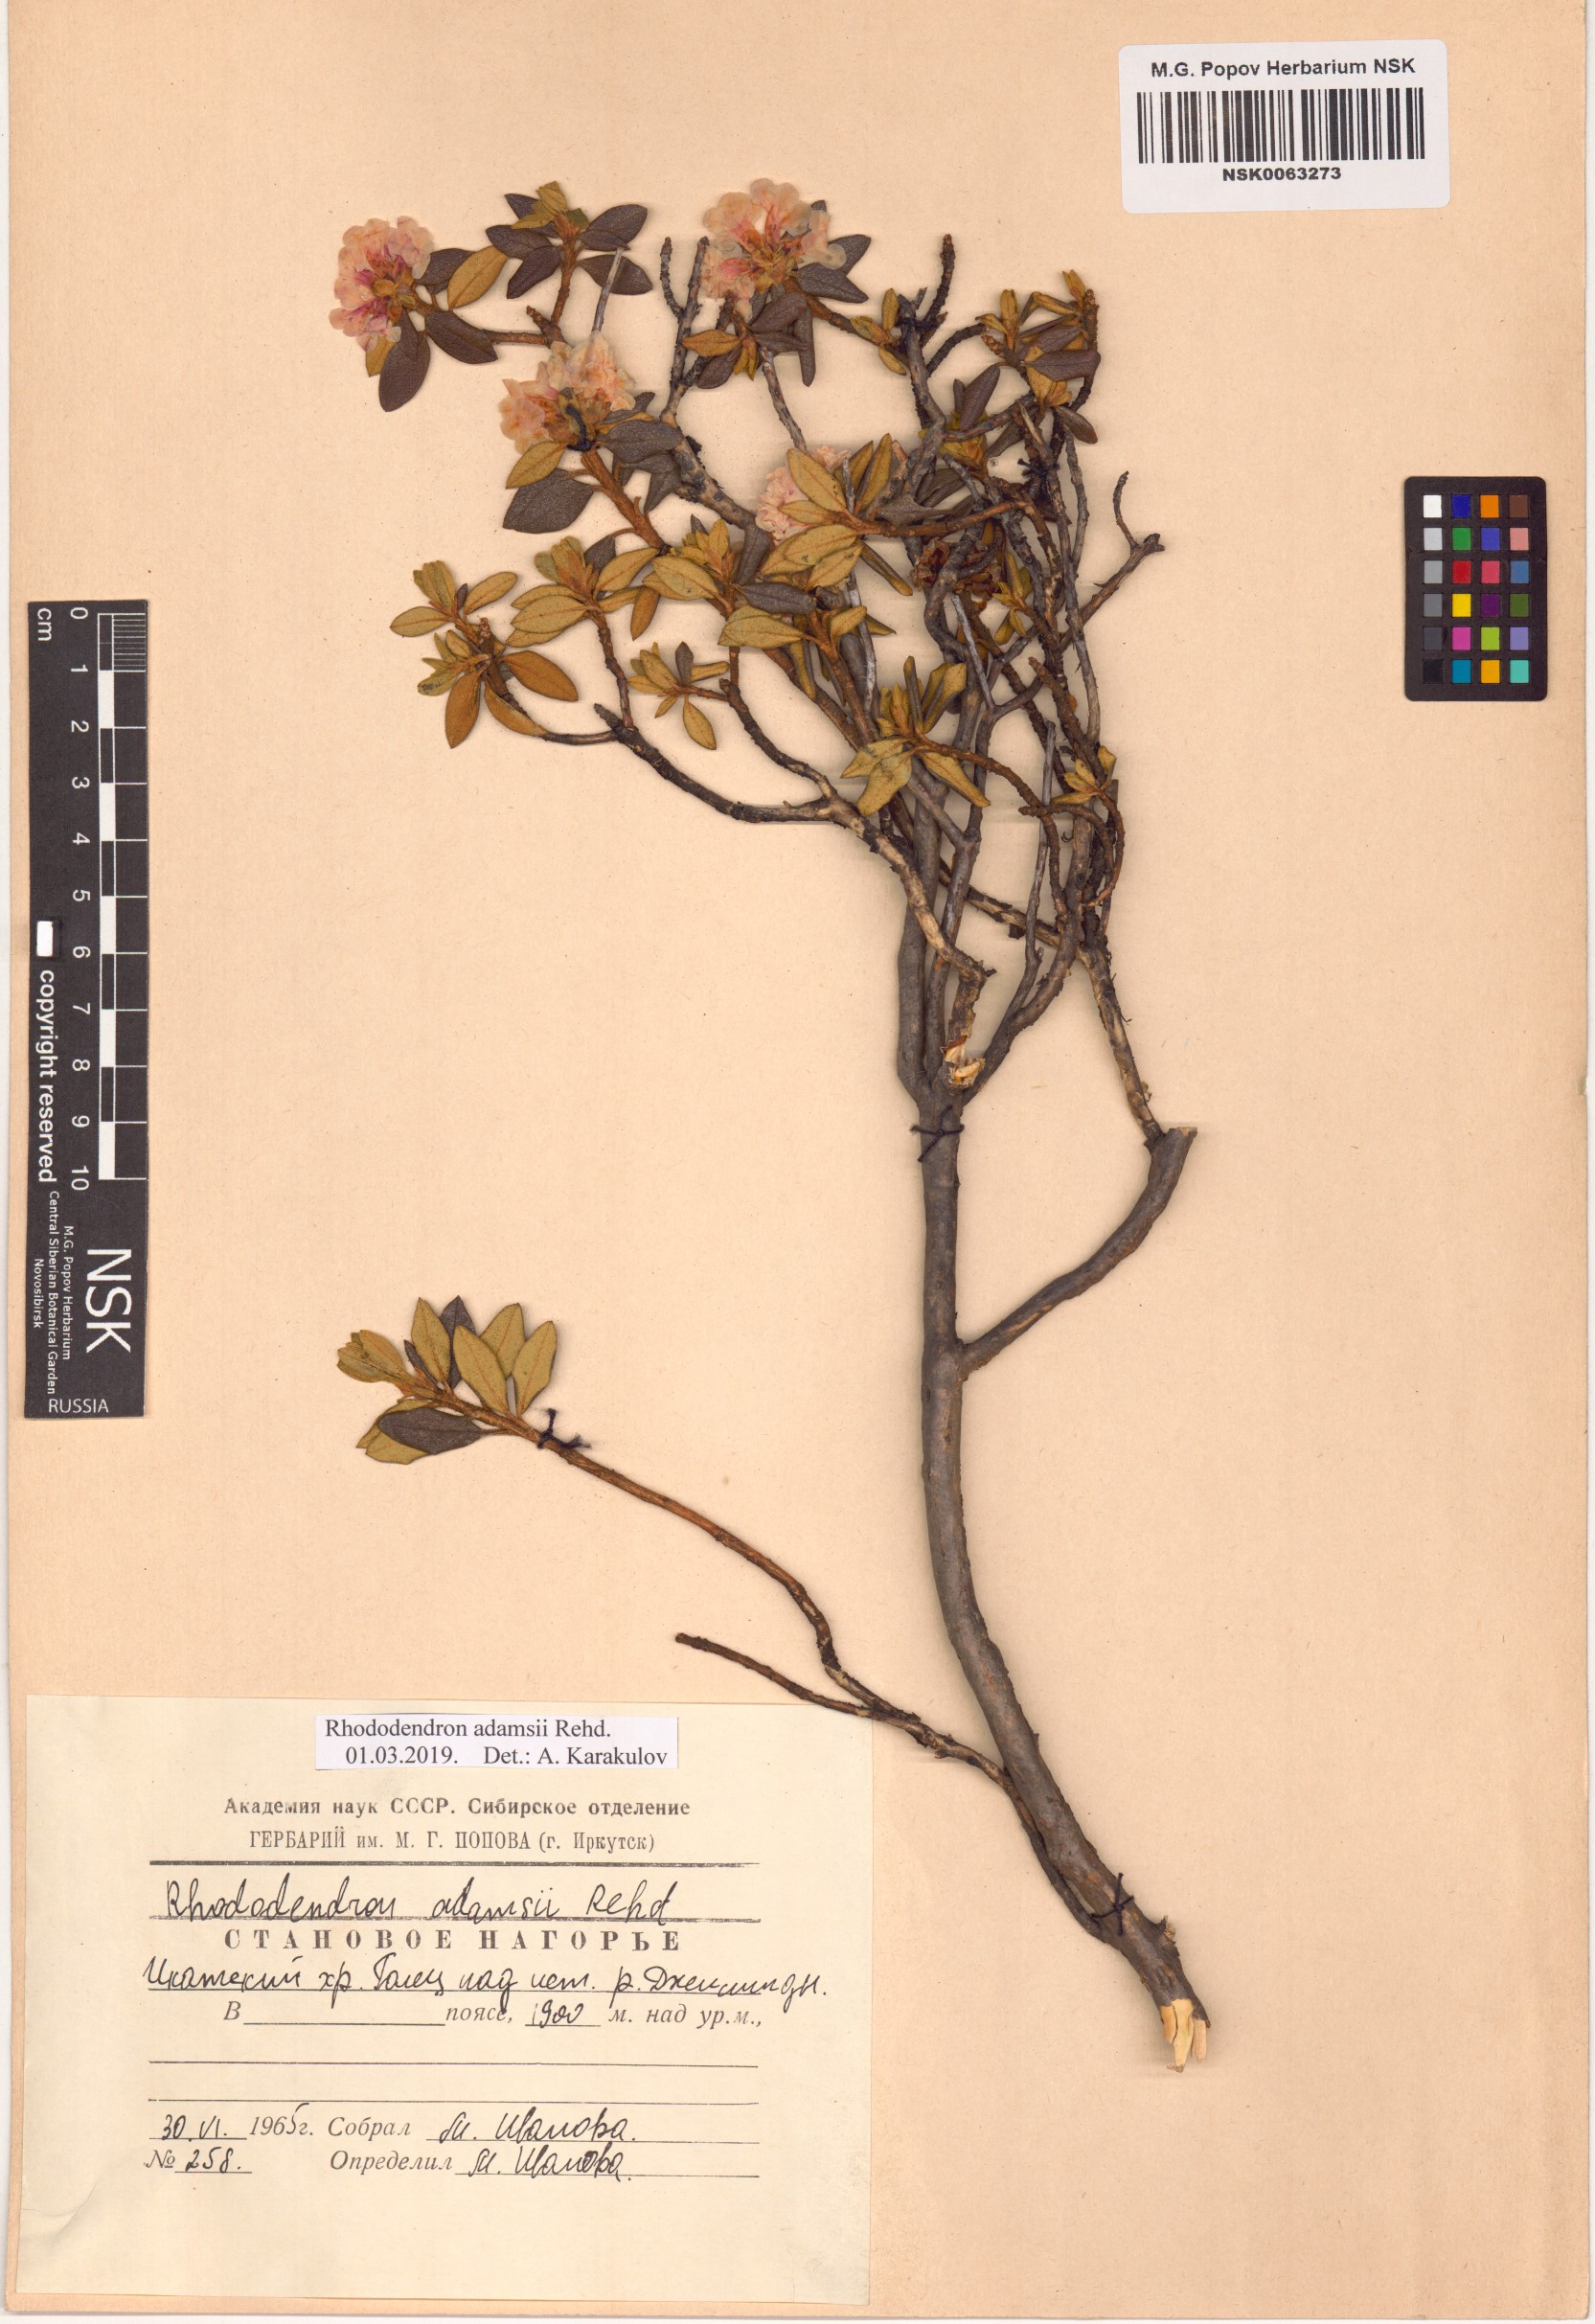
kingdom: Plantae
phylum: Tracheophyta
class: Magnoliopsida
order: Ericales
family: Ericaceae
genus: Rhododendron
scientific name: Rhododendron adamsii
